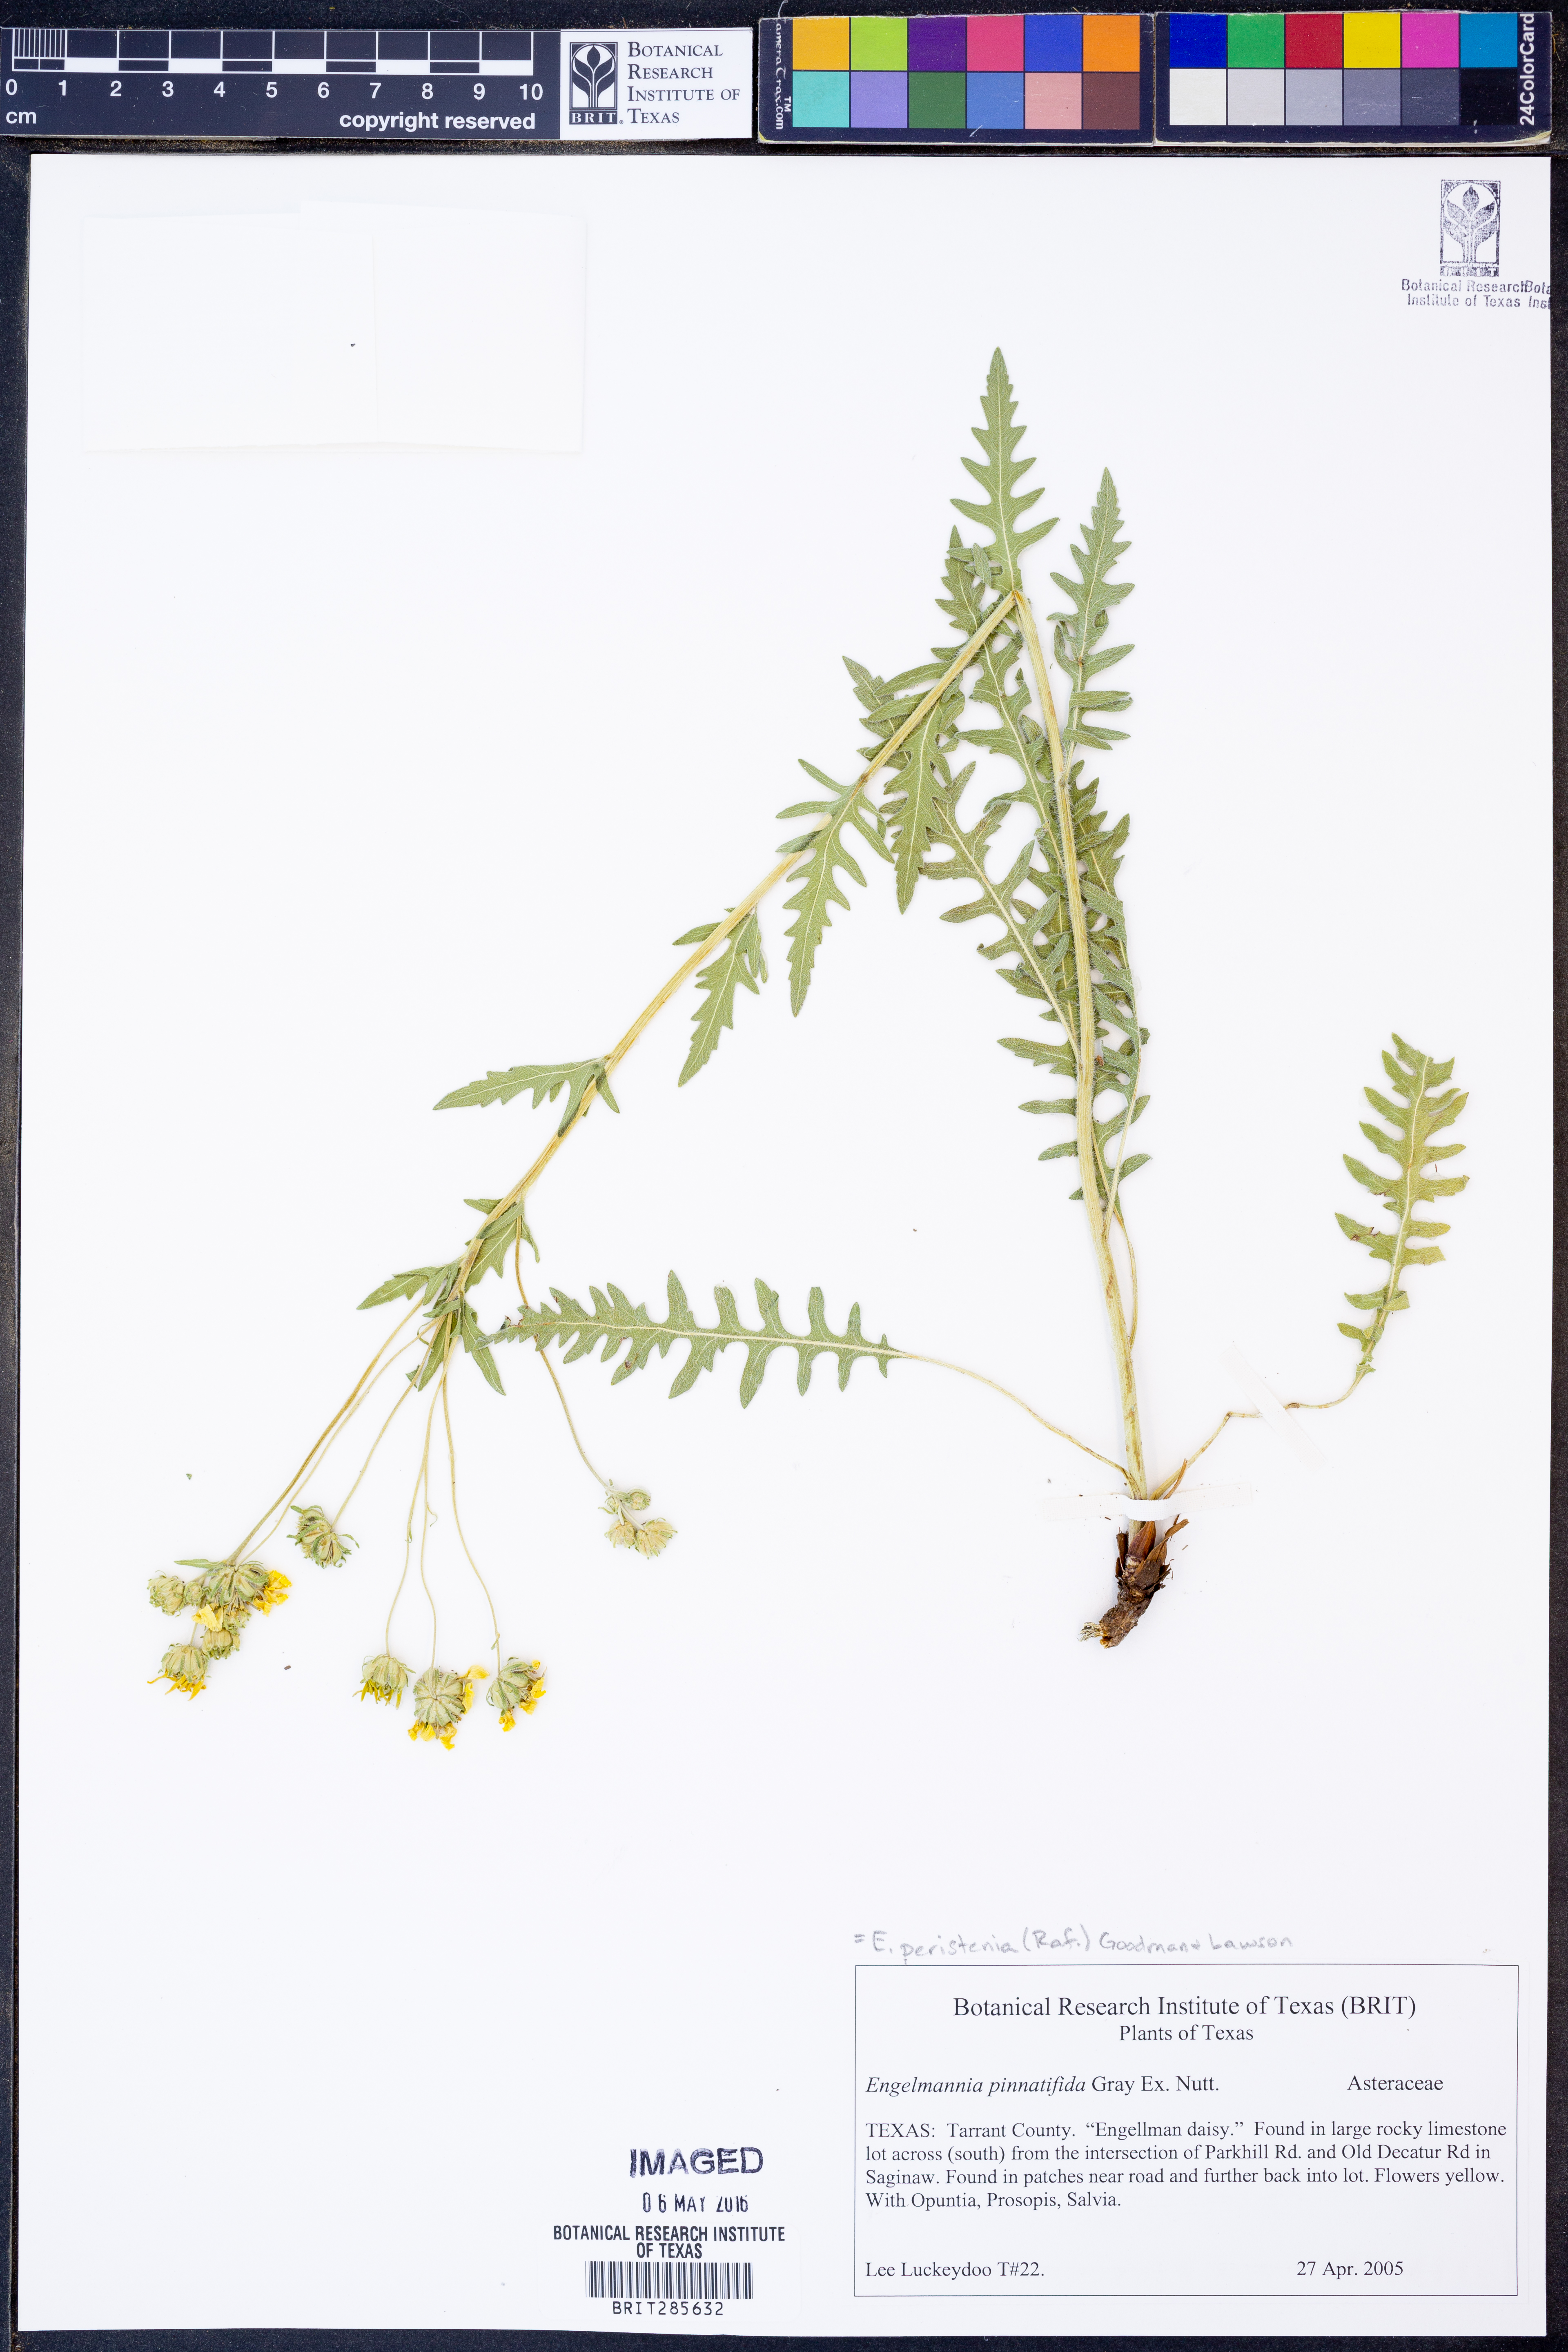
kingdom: Plantae
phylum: Tracheophyta
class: Magnoliopsida
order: Asterales
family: Asteraceae
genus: Engelmannia
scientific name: Engelmannia peristenia
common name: Engelmann's daisy
